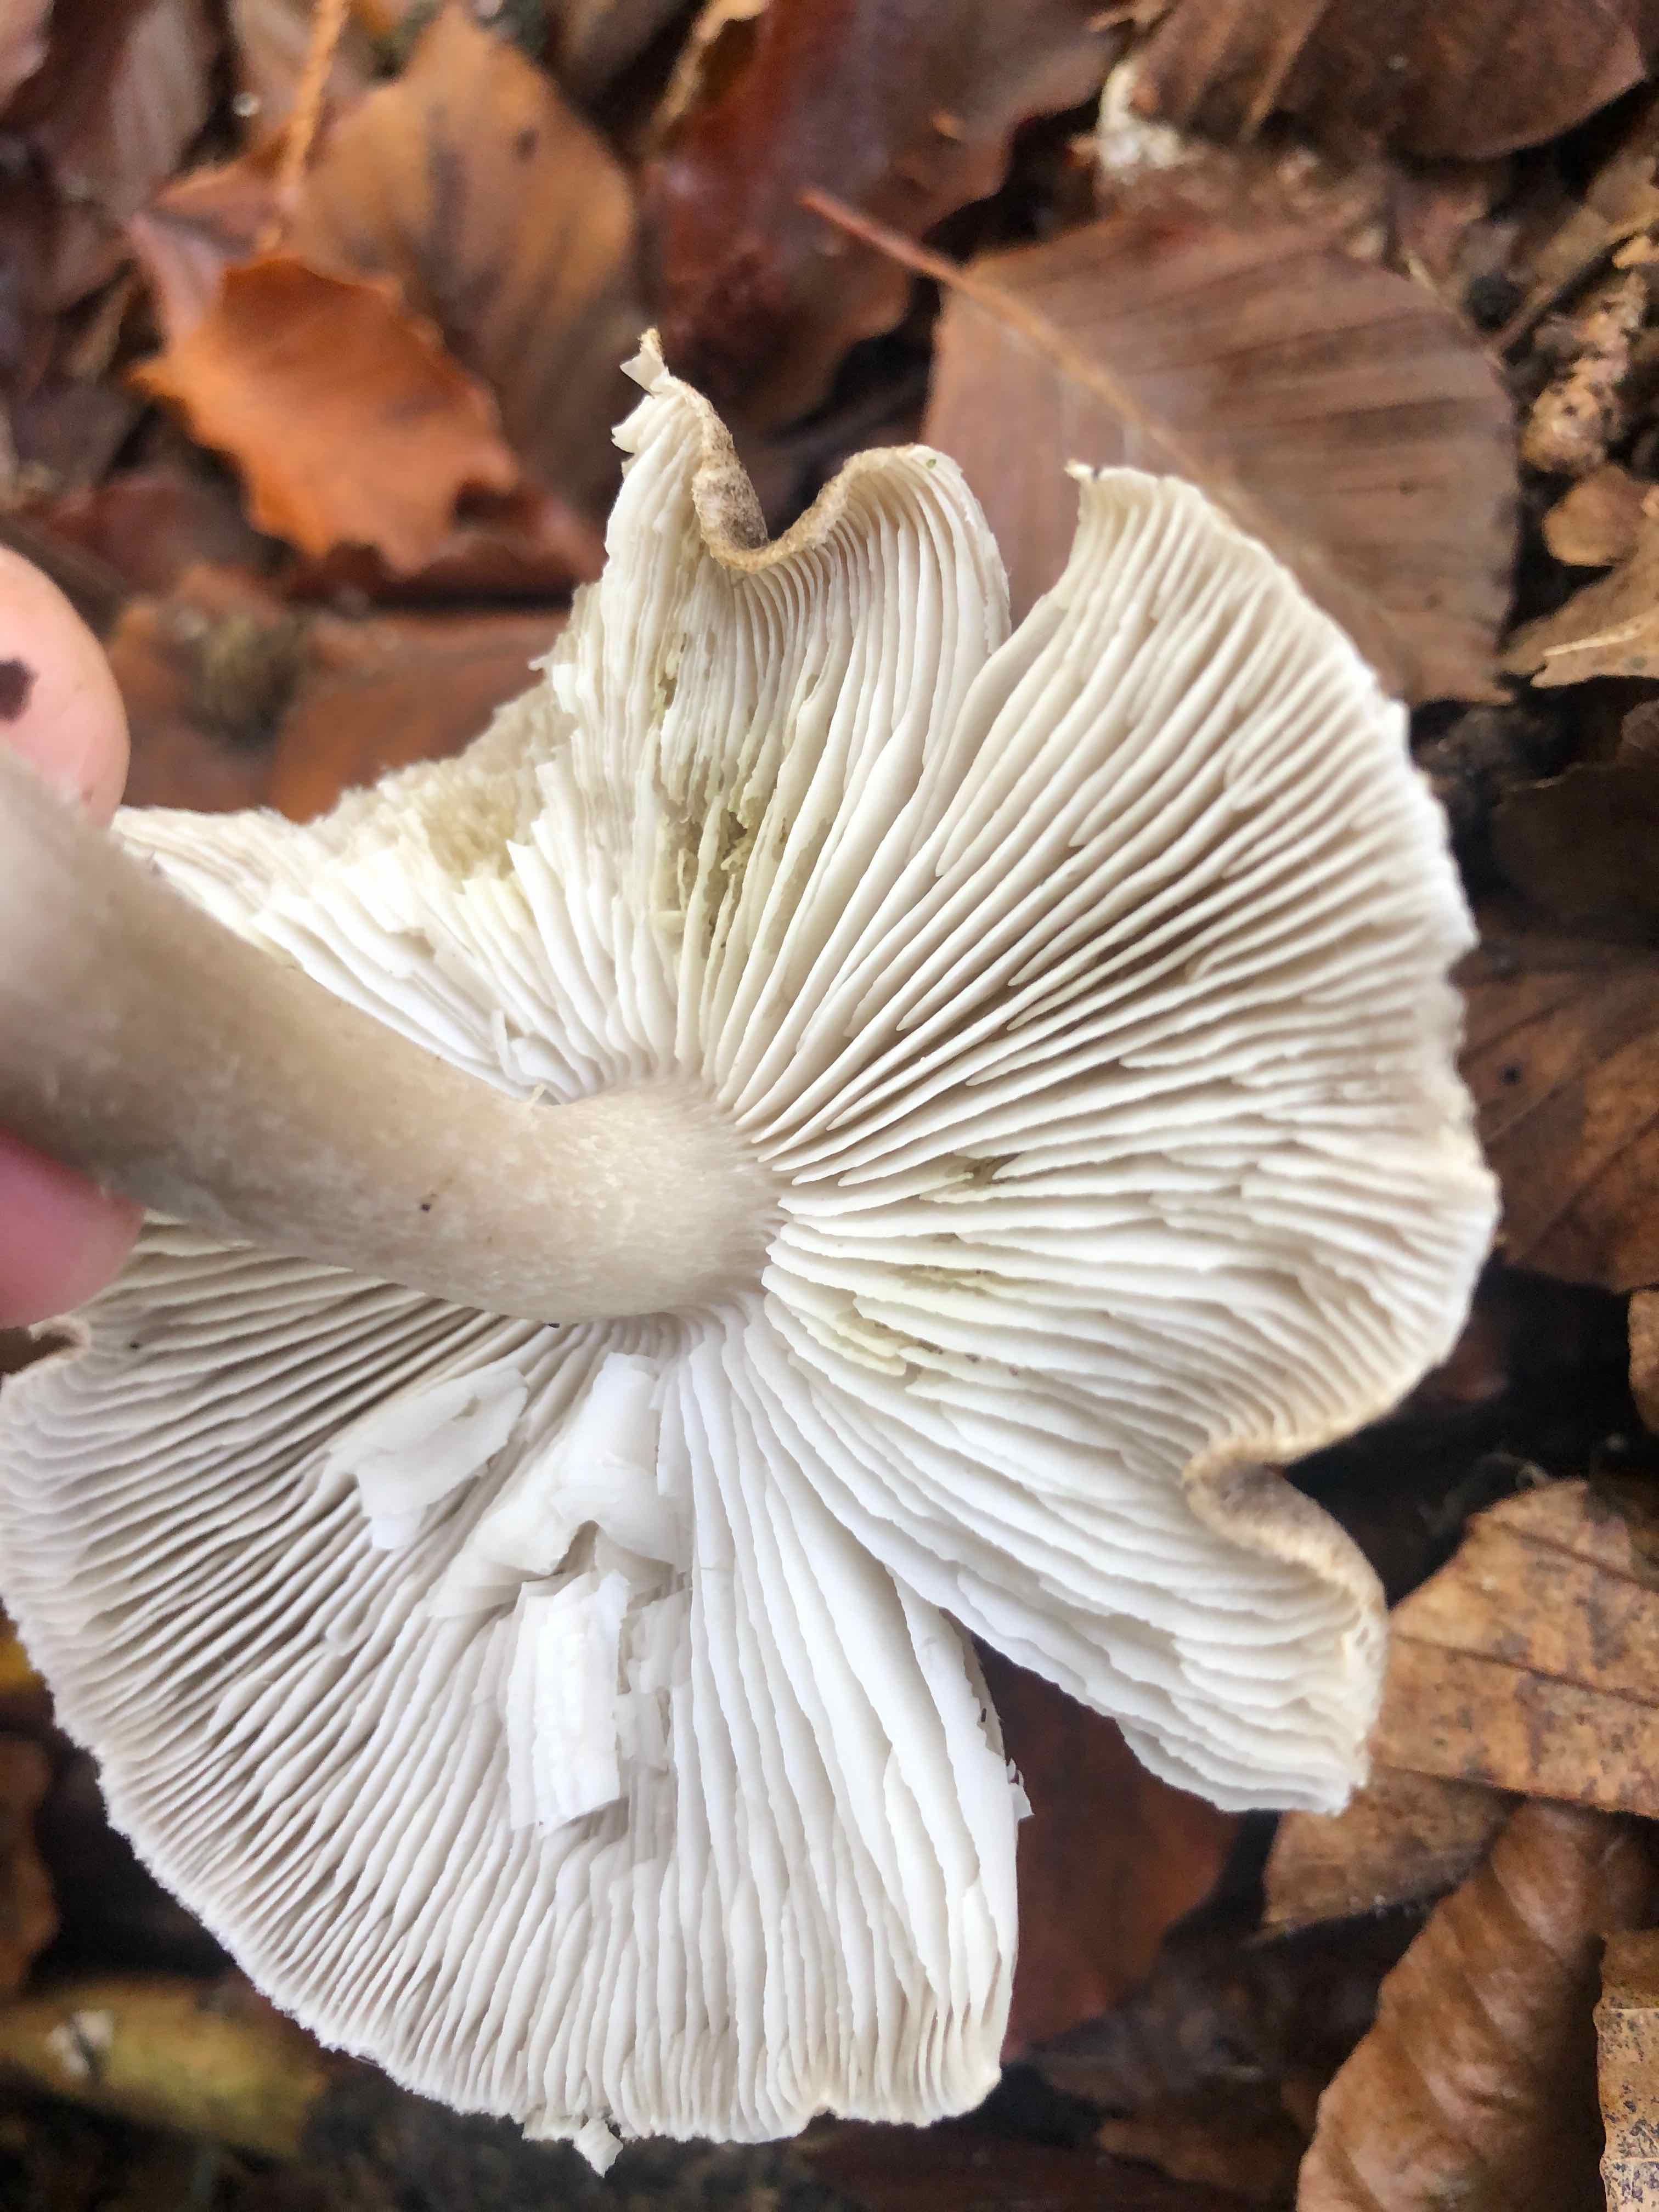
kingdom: Fungi
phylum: Basidiomycota
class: Agaricomycetes
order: Agaricales
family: Tricholomataceae
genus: Tricholoma
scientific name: Tricholoma scalpturatum
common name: gulplettet ridderhat
